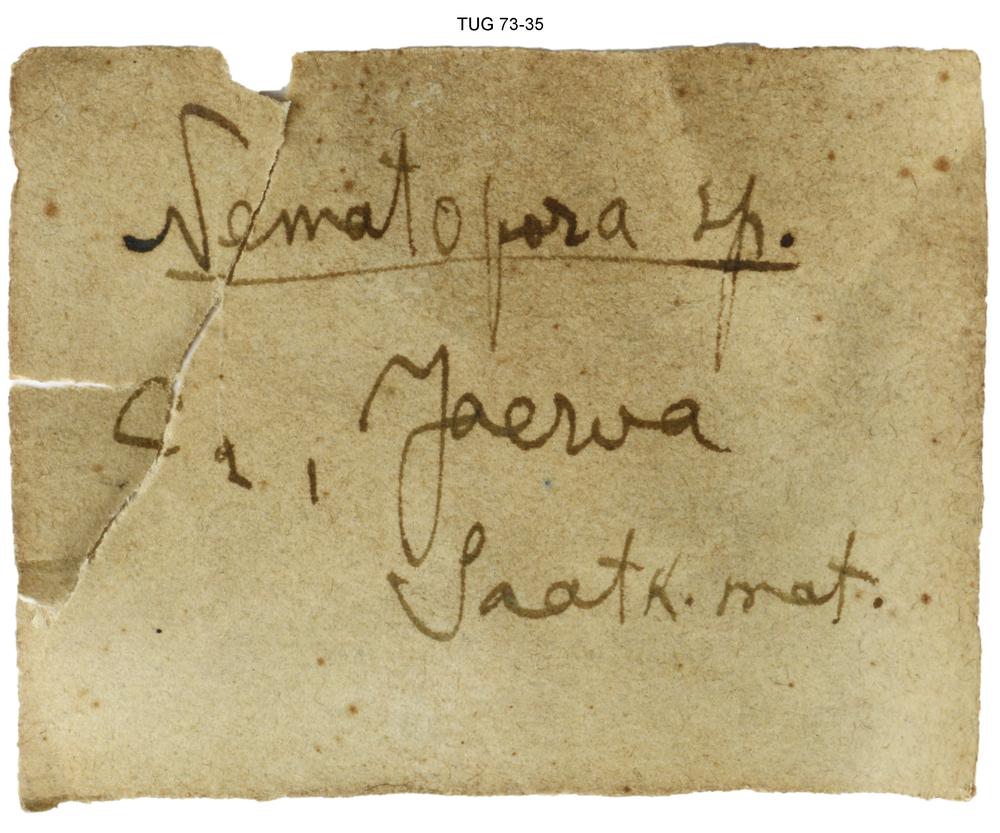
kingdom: Animalia
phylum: Bryozoa
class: Stenolaemata
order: Fenestrida
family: Chasmatoporidae
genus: Chasmatopora
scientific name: Chasmatopora furcata
